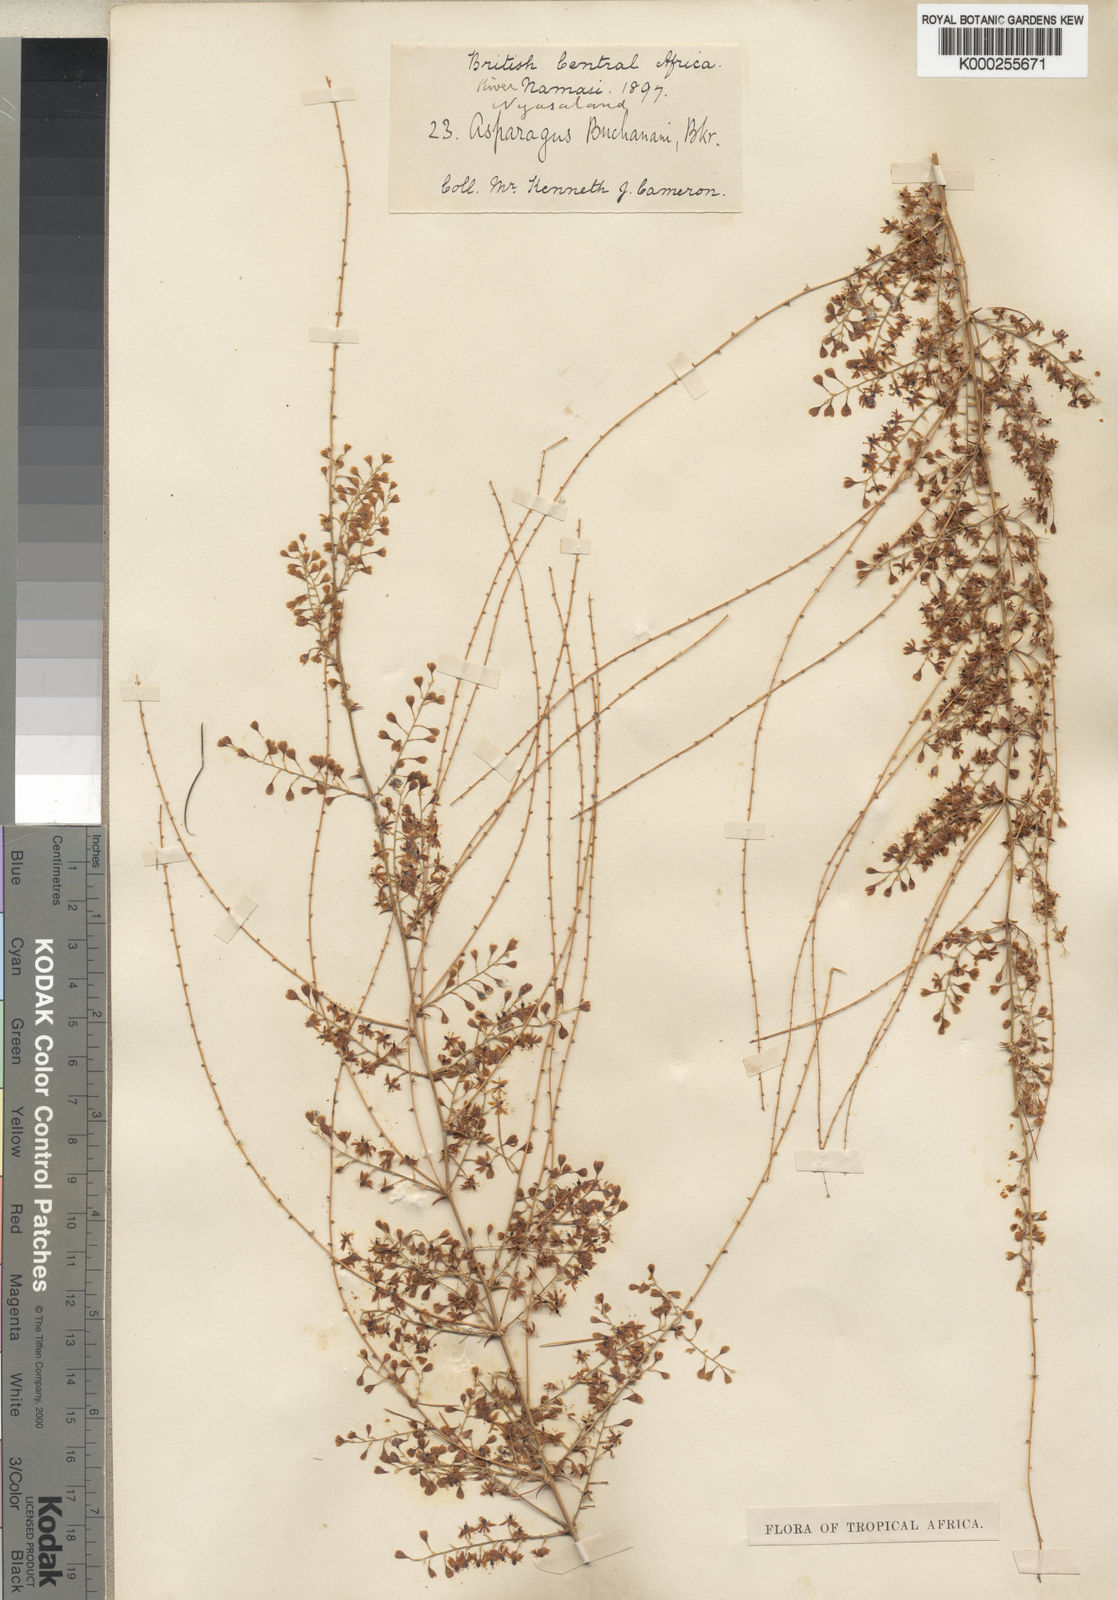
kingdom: Plantae
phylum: Tracheophyta
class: Liliopsida
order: Asparagales
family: Asparagaceae
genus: Asparagus
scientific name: Asparagus buchananii
